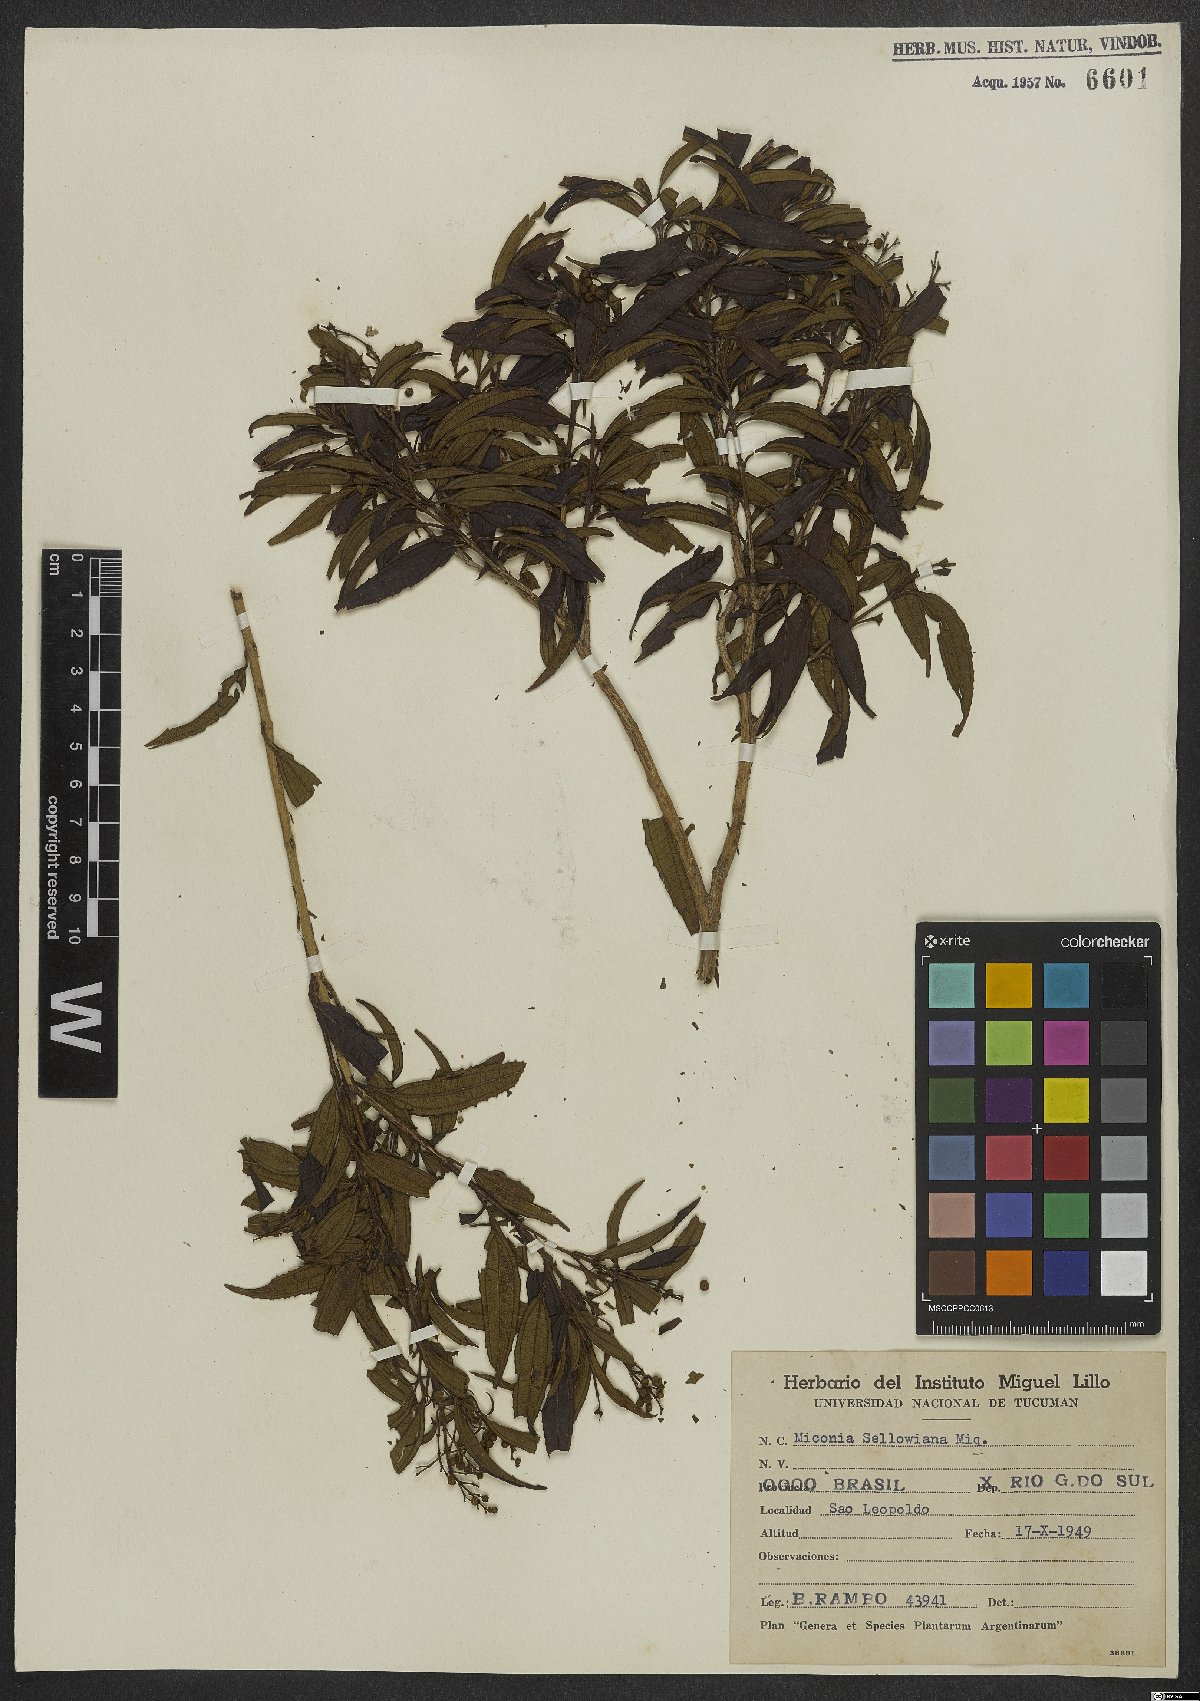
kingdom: Plantae
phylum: Tracheophyta
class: Magnoliopsida
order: Myrtales
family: Melastomataceae
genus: Miconia
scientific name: Miconia sellowiana
